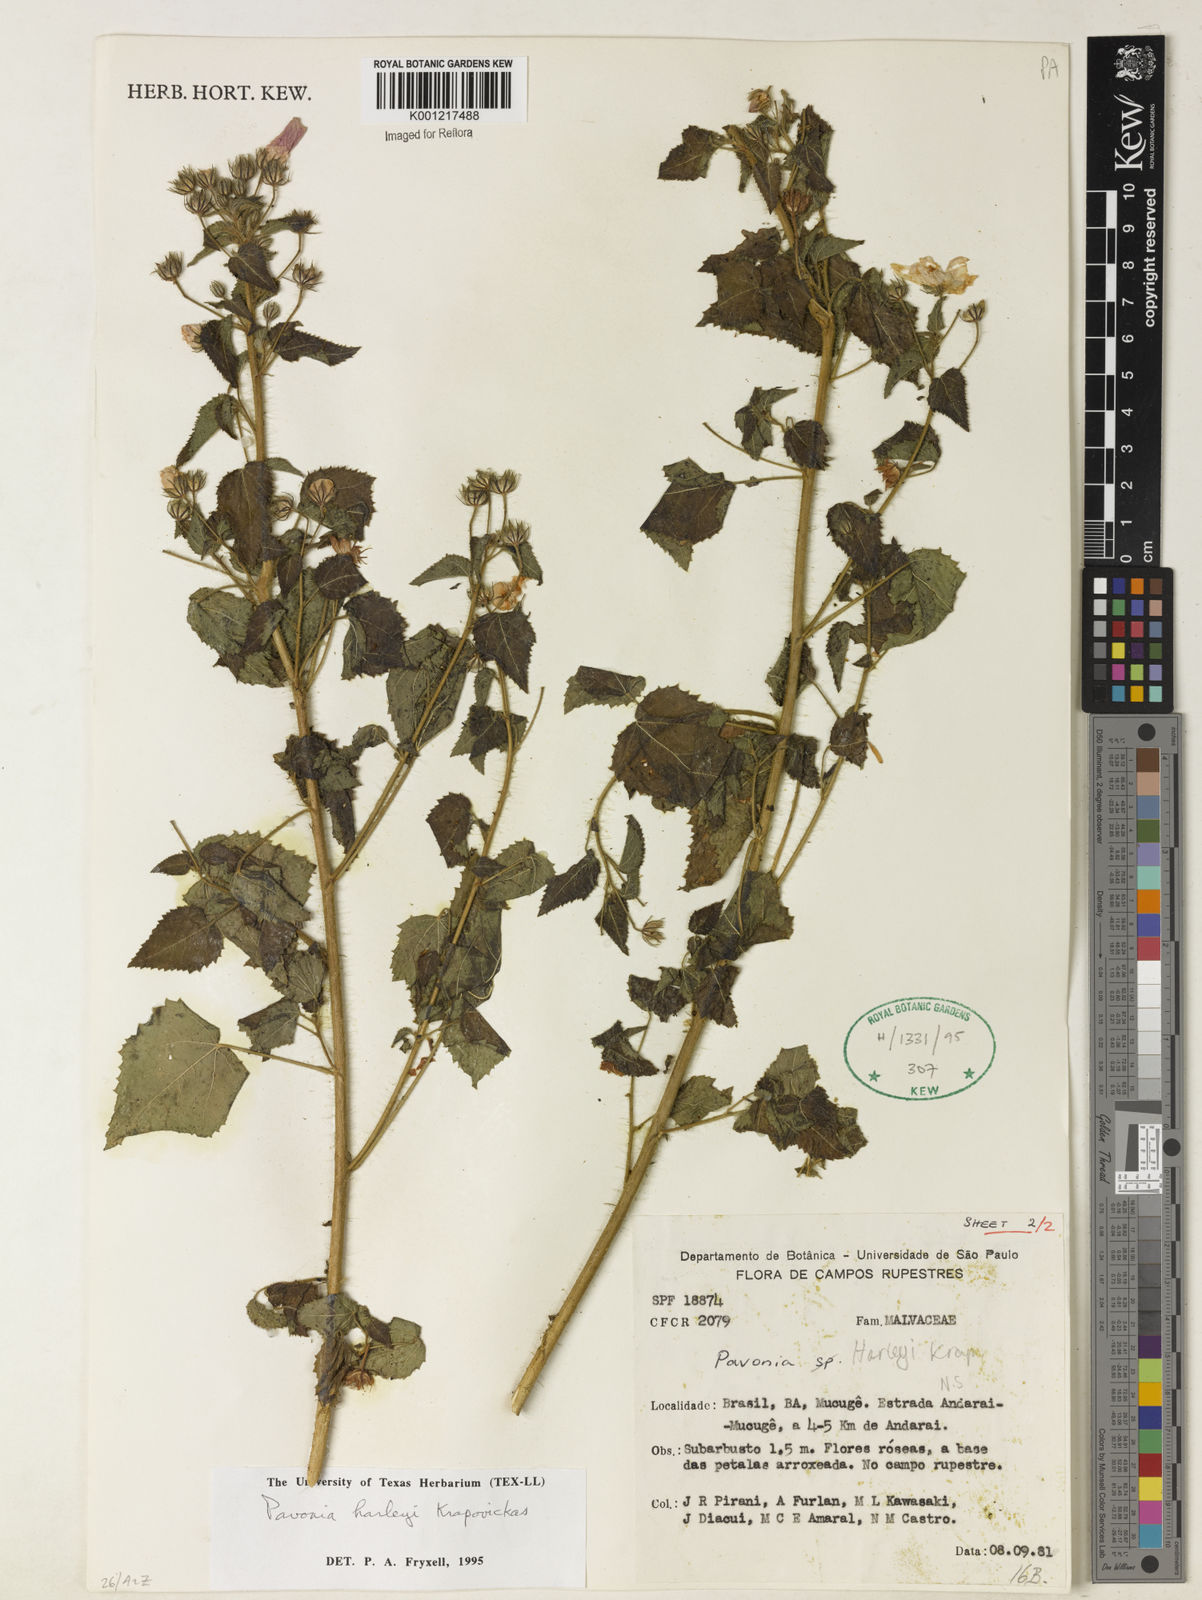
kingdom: Plantae
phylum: Tracheophyta
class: Magnoliopsida
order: Malvales
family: Malvaceae
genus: Pavonia
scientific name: Pavonia harleyi
